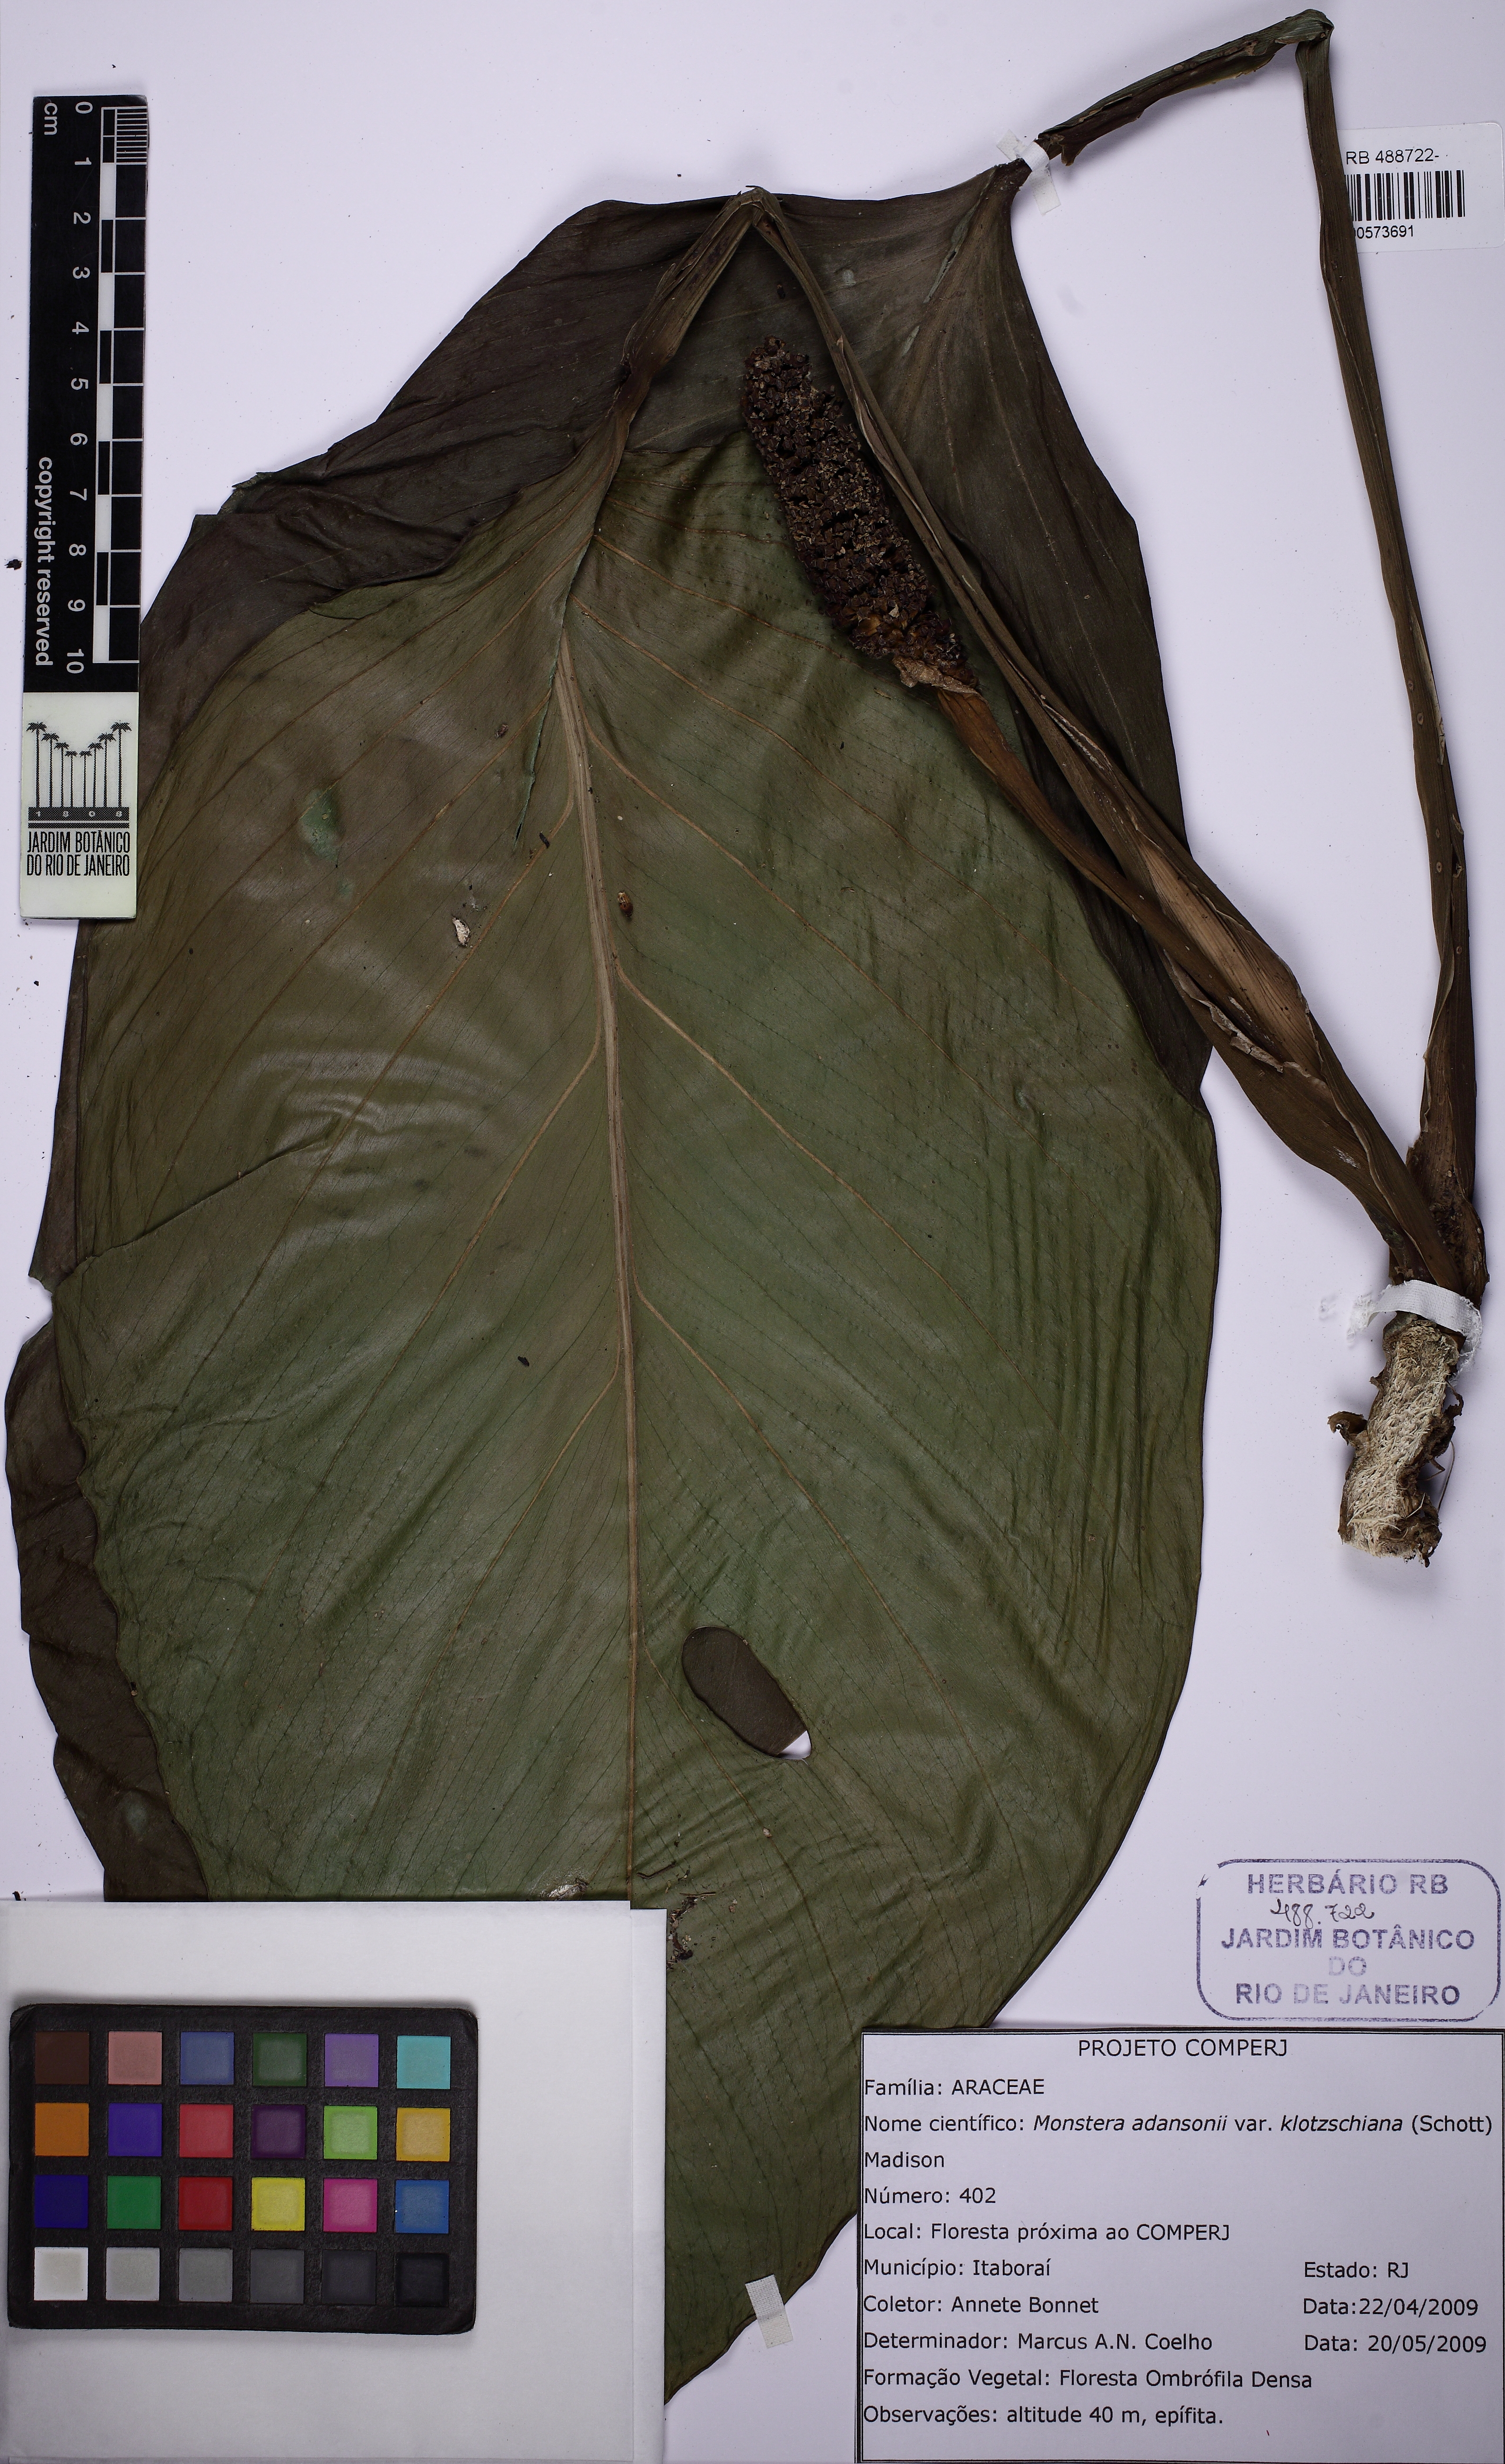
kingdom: Plantae
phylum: Tracheophyta
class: Liliopsida
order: Alismatales
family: Araceae
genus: Monstera
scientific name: Monstera adansonii
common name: Tarovine
